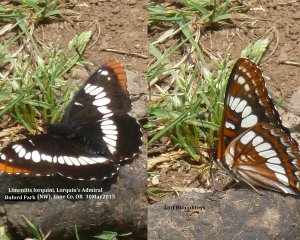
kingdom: Animalia
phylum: Arthropoda
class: Insecta
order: Lepidoptera
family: Nymphalidae
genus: Limenitis
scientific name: Limenitis lorquini
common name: Lorquin's Admiral
